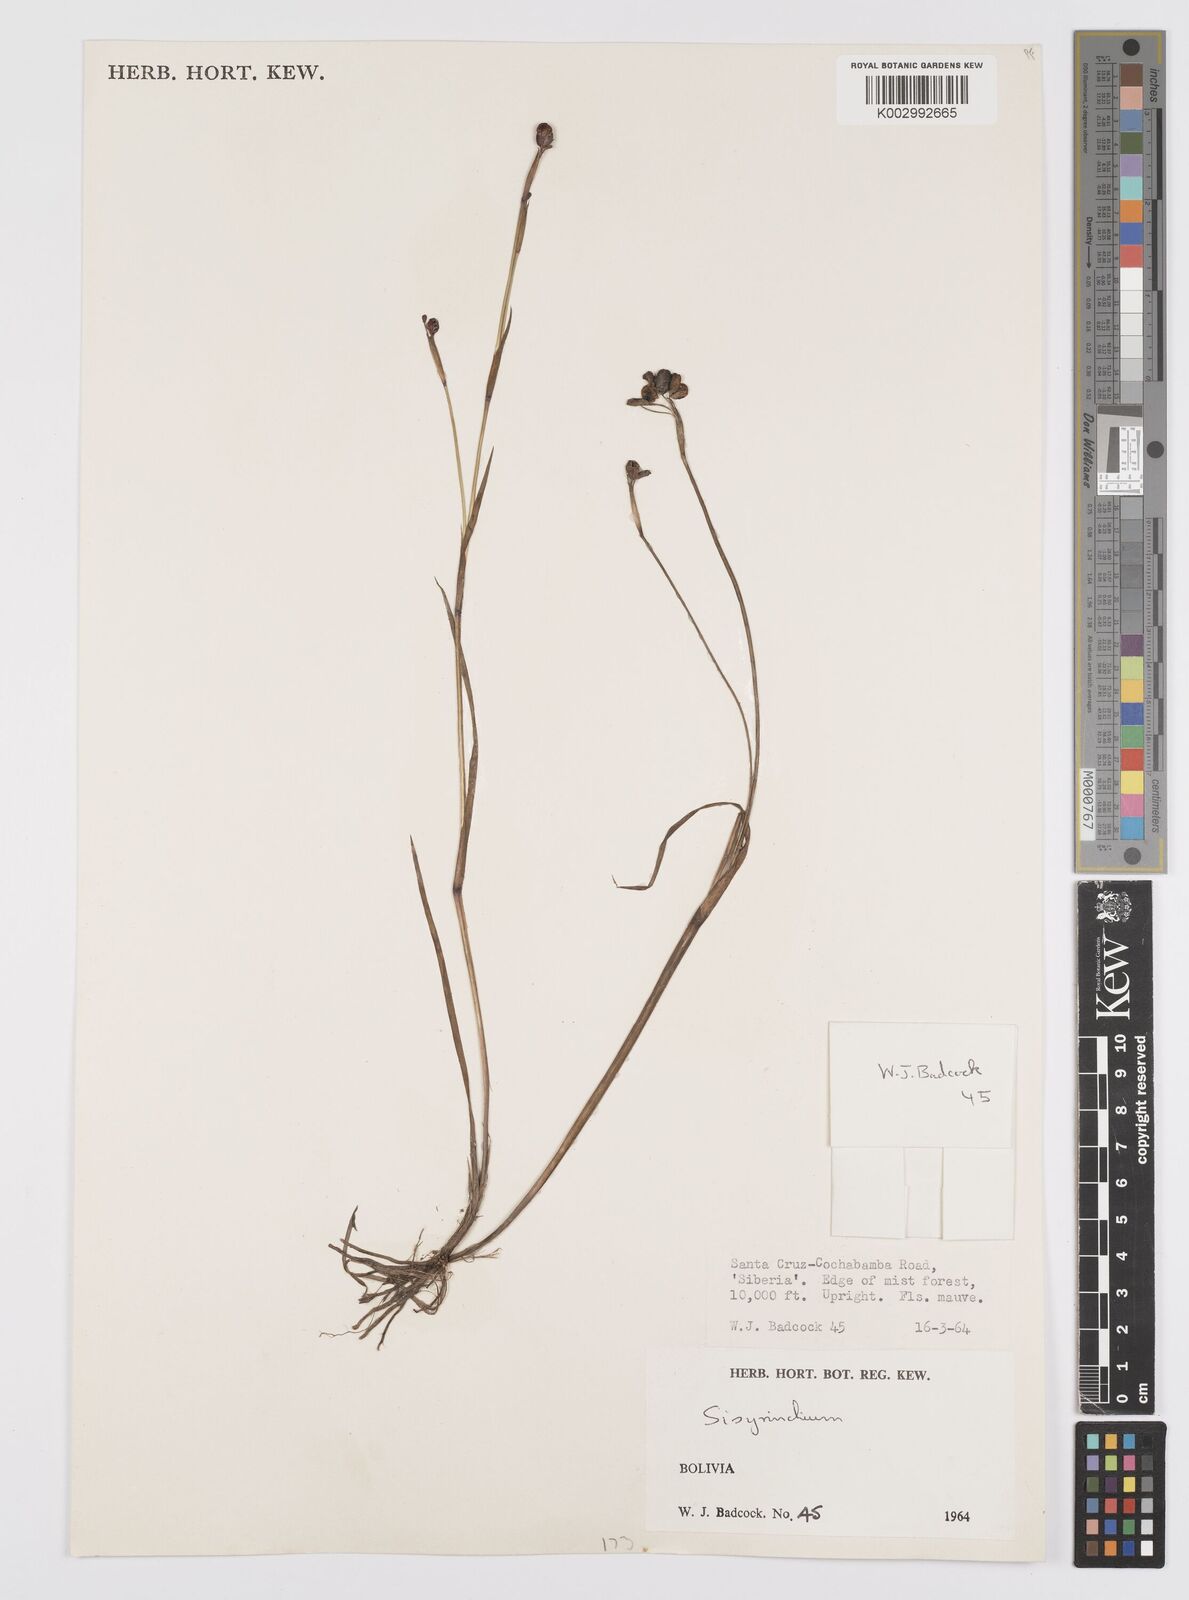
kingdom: Plantae
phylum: Tracheophyta
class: Liliopsida
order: Asparagales
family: Iridaceae
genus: Sisyrinchium
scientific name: Sisyrinchium
